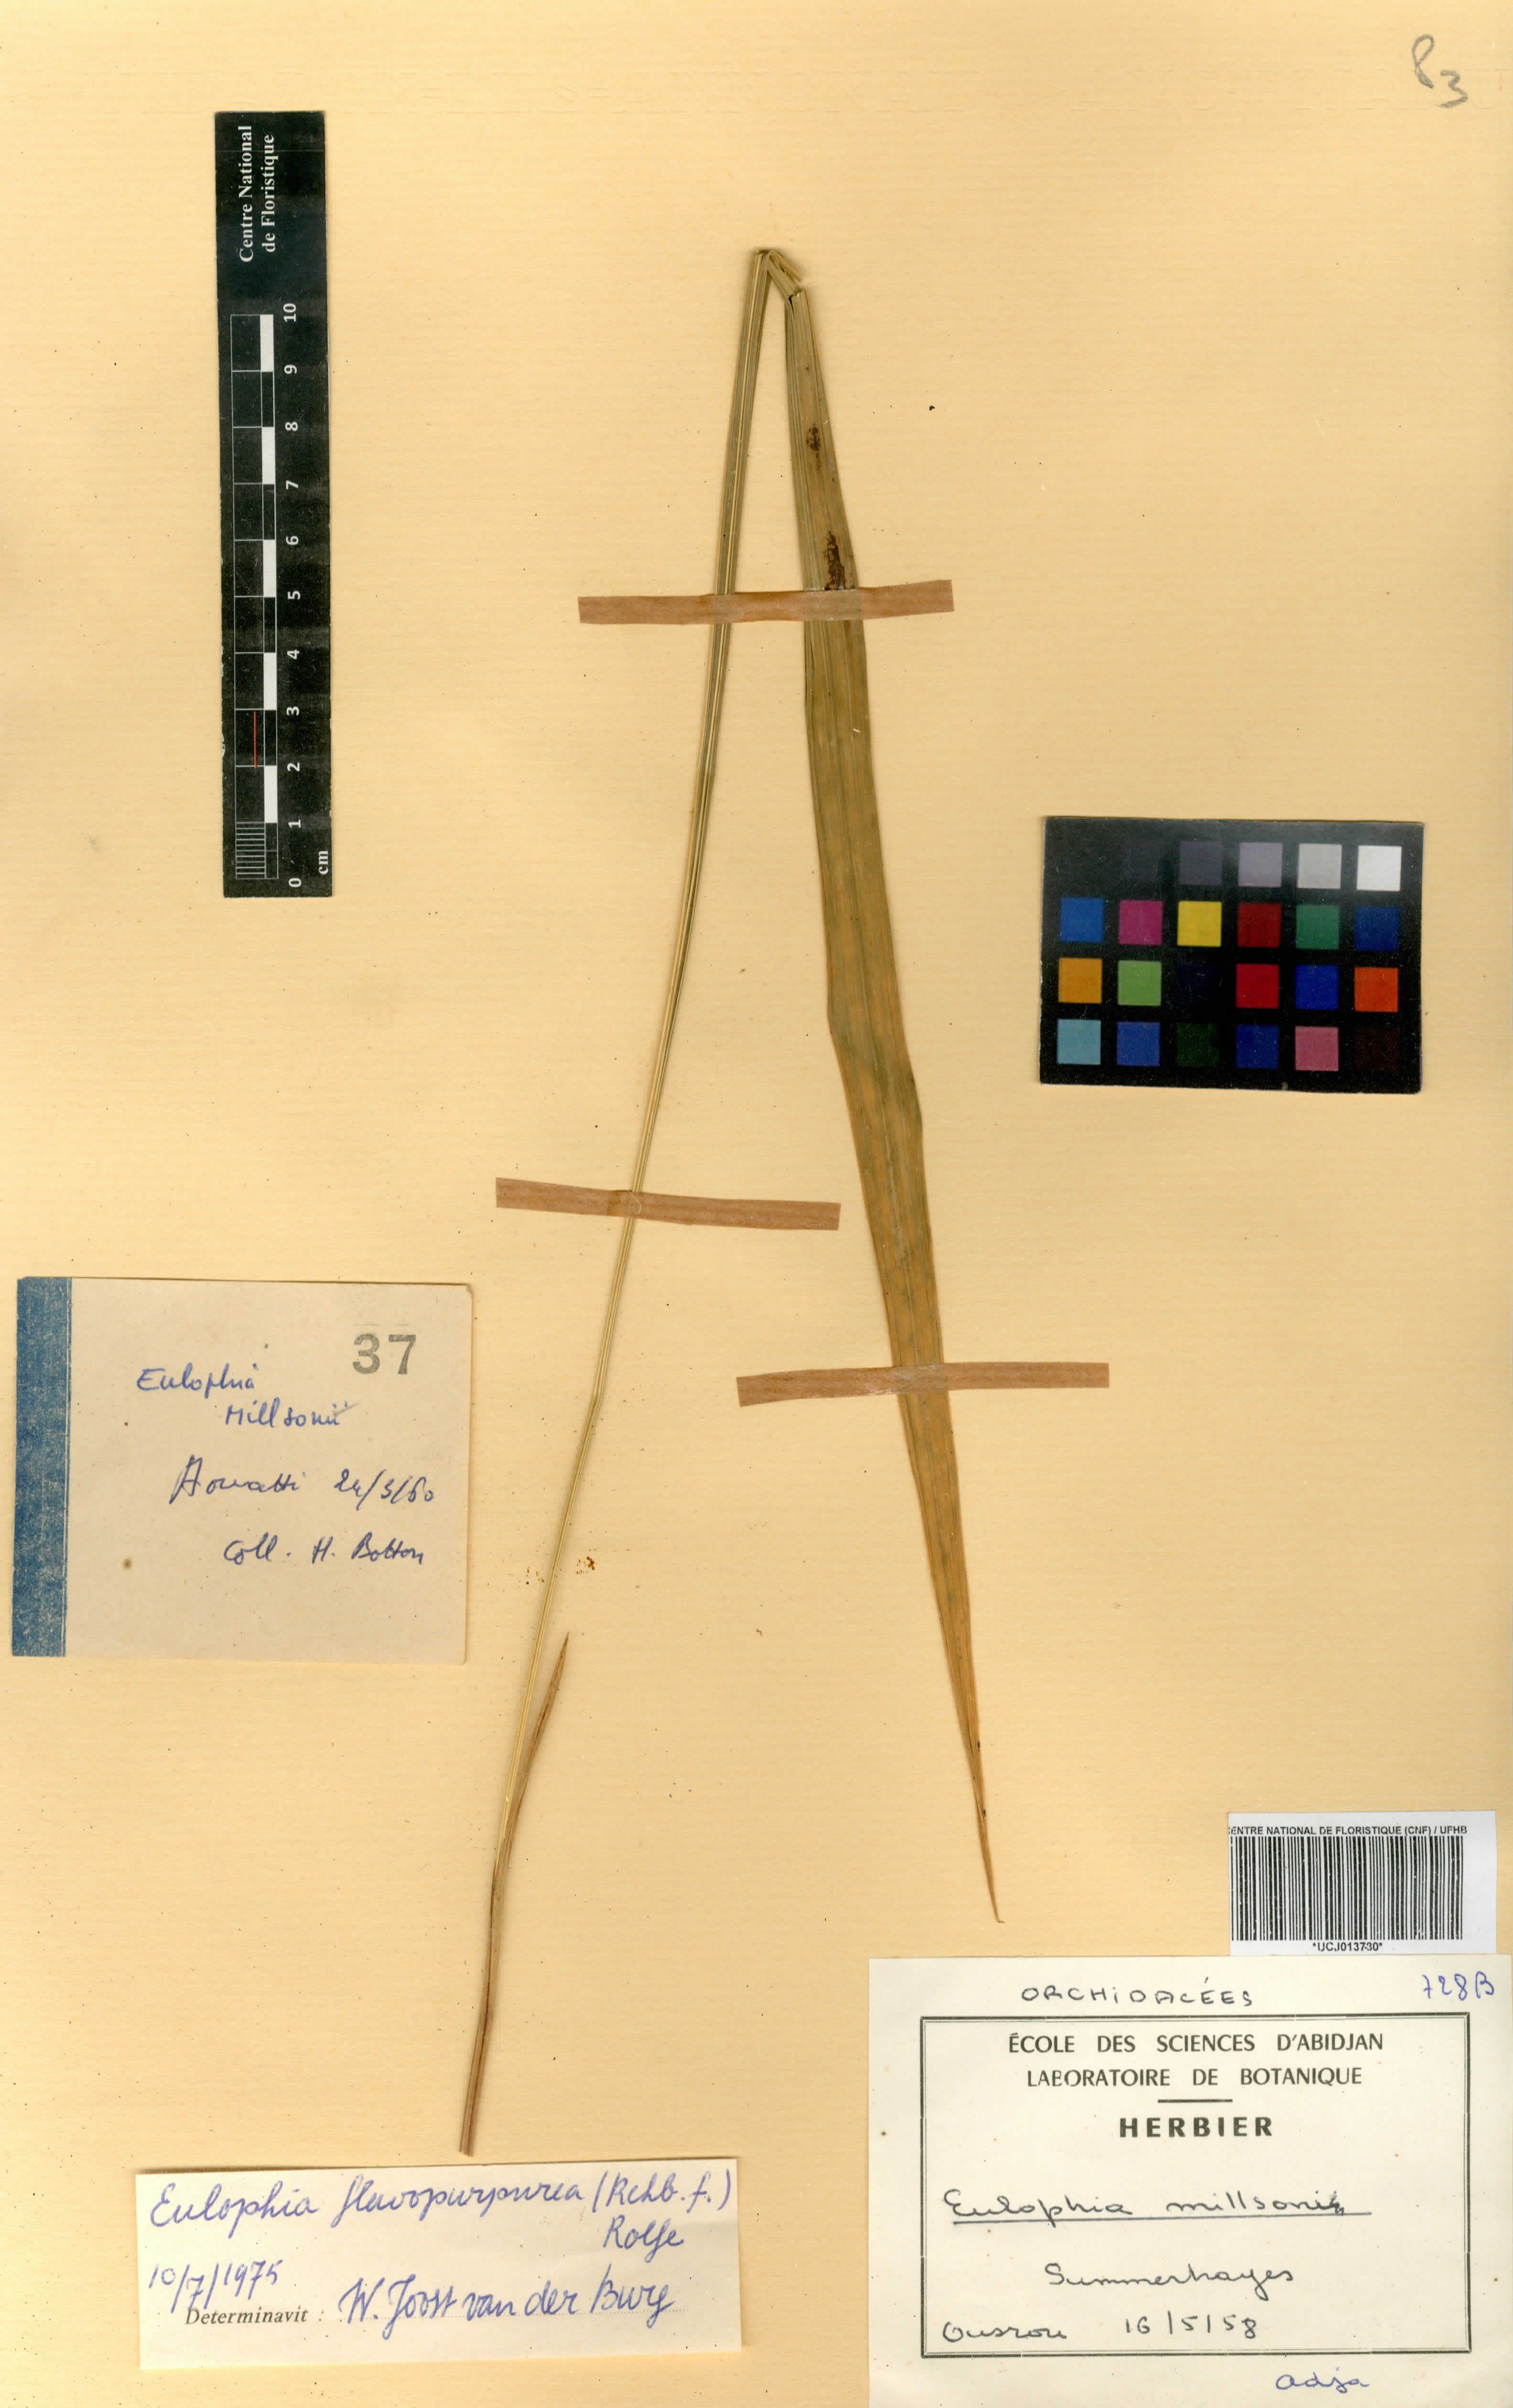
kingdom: Plantae
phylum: Tracheophyta
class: Liliopsida
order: Asparagales
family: Orchidaceae
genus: Eulophia
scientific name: Eulophia flavopurpurea
